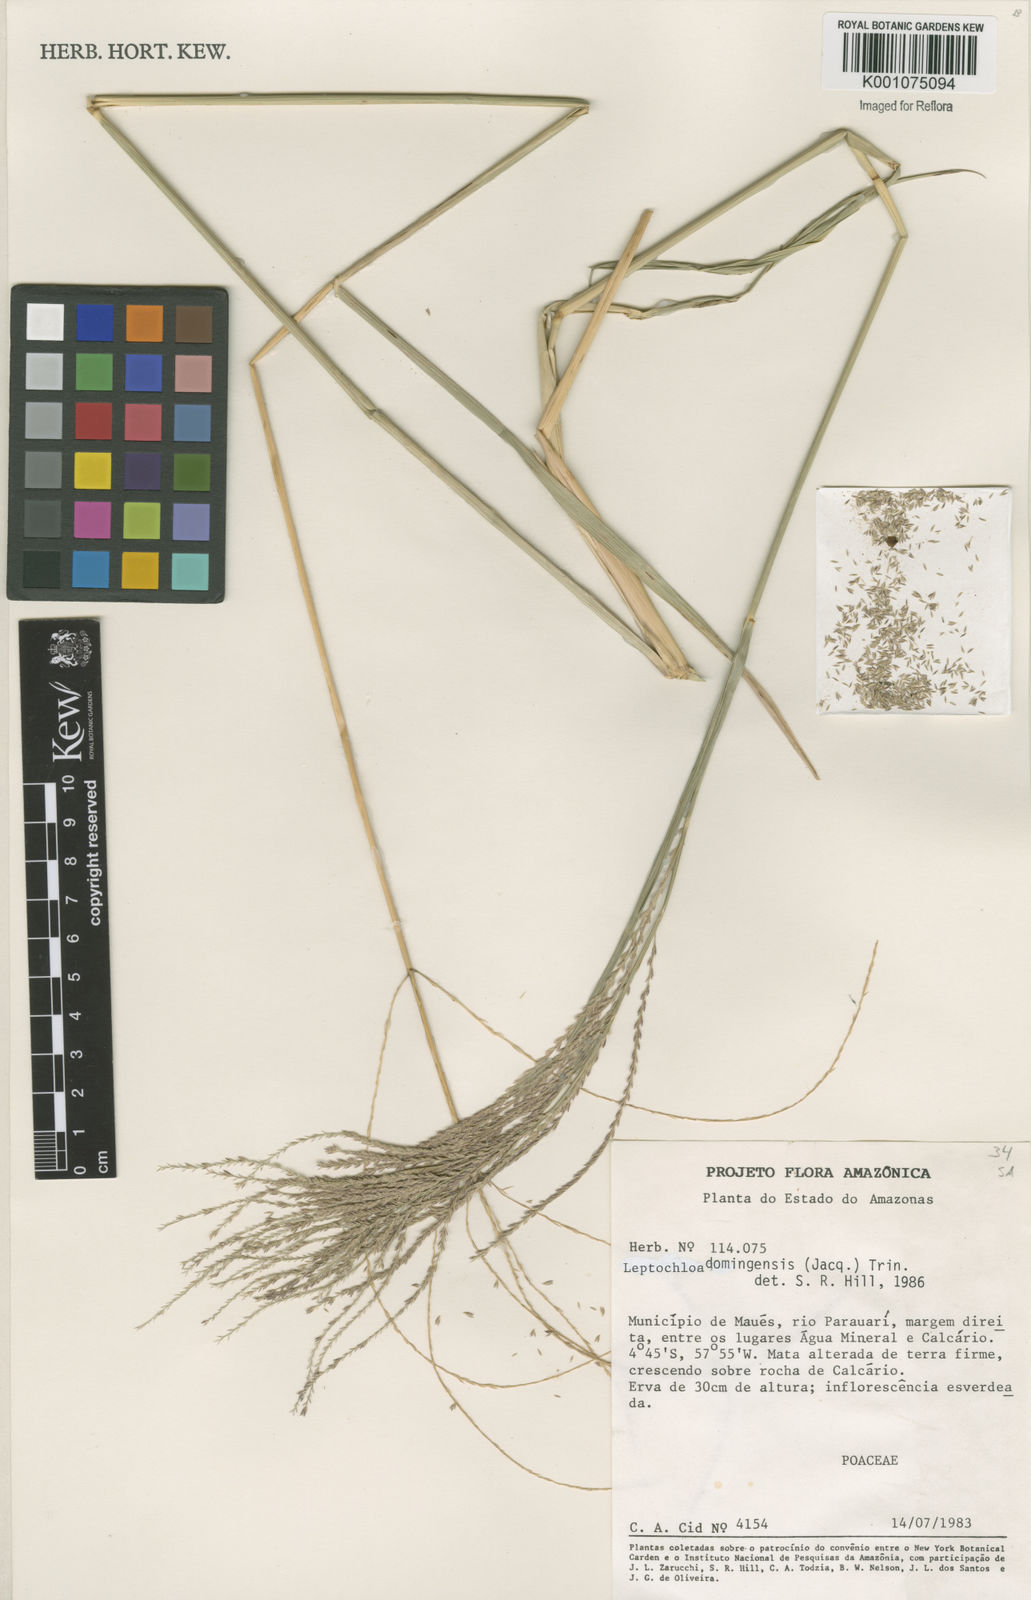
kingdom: Plantae
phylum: Tracheophyta
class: Liliopsida
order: Poales
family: Poaceae
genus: Leptochloa
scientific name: Leptochloa virgata
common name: Tropical sprangletop
